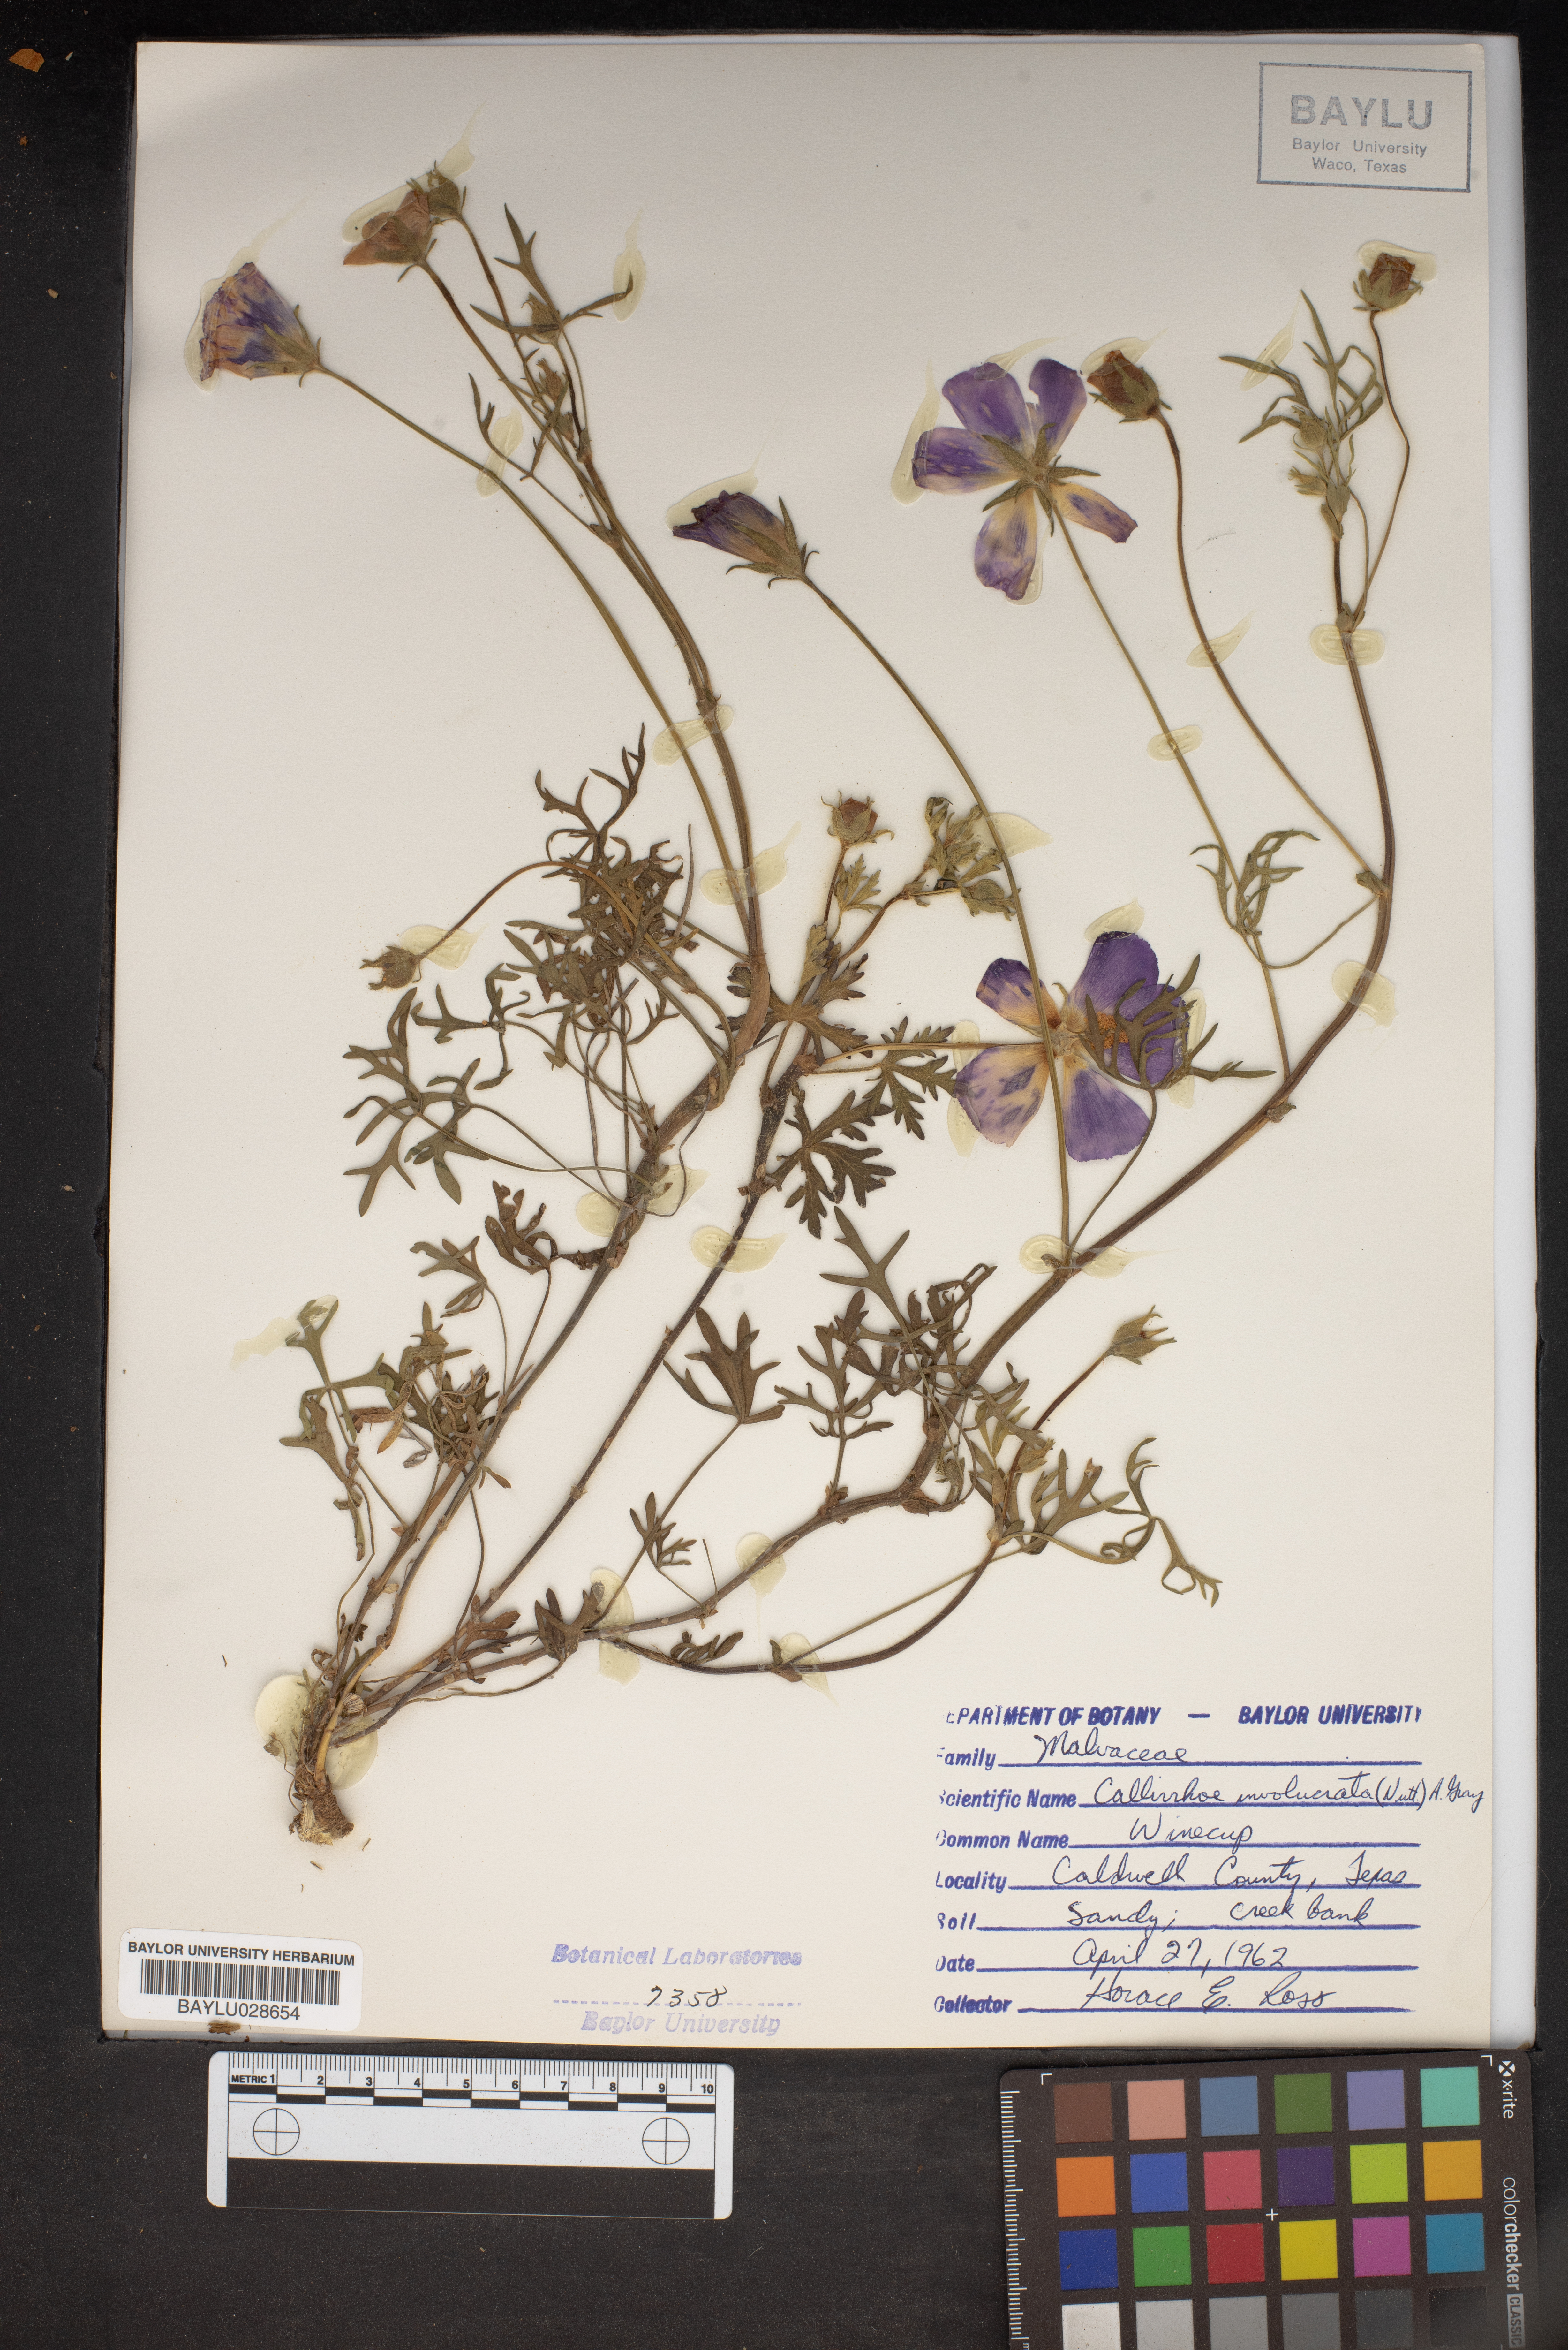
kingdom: Plantae
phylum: Tracheophyta
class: Magnoliopsida
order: Malvales
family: Malvaceae
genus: Callirhoe
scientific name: Callirhoe involucrata
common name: Purple poppy-mallow
